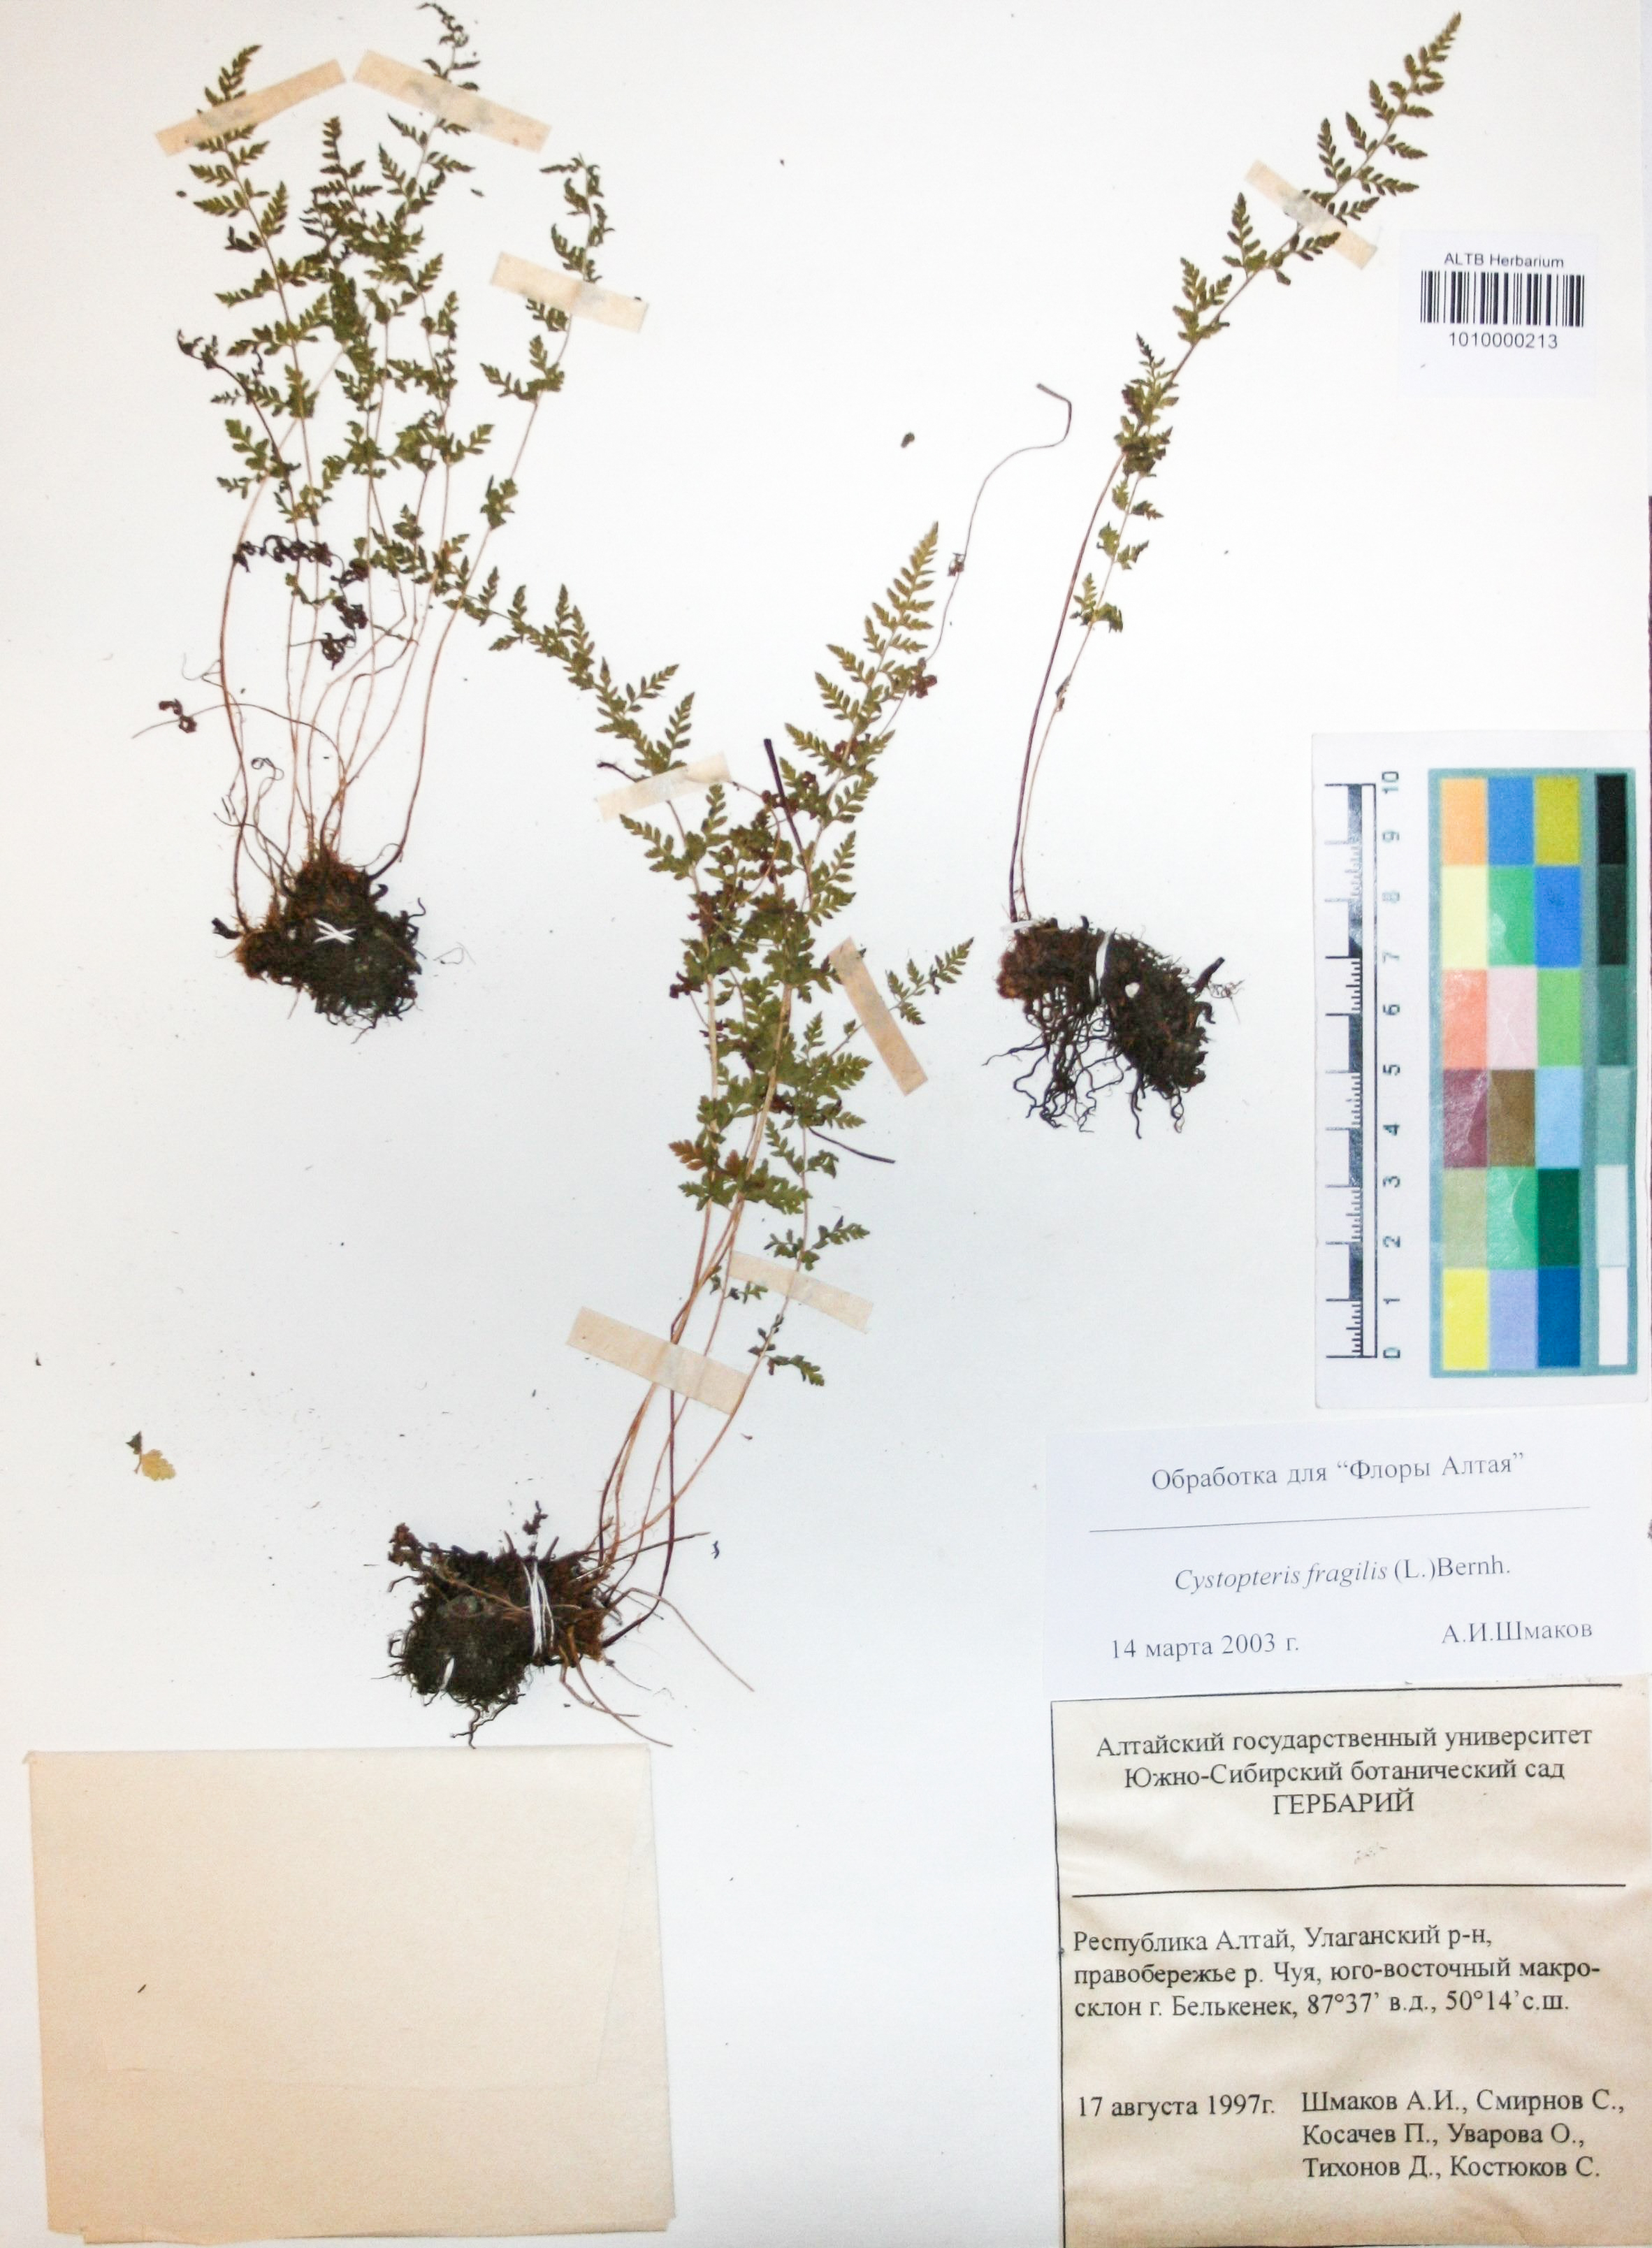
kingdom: Plantae
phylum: Tracheophyta
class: Polypodiopsida
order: Polypodiales
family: Cystopteridaceae
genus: Cystopteris
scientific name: Cystopteris fragilis
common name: Brittle bladder fern
